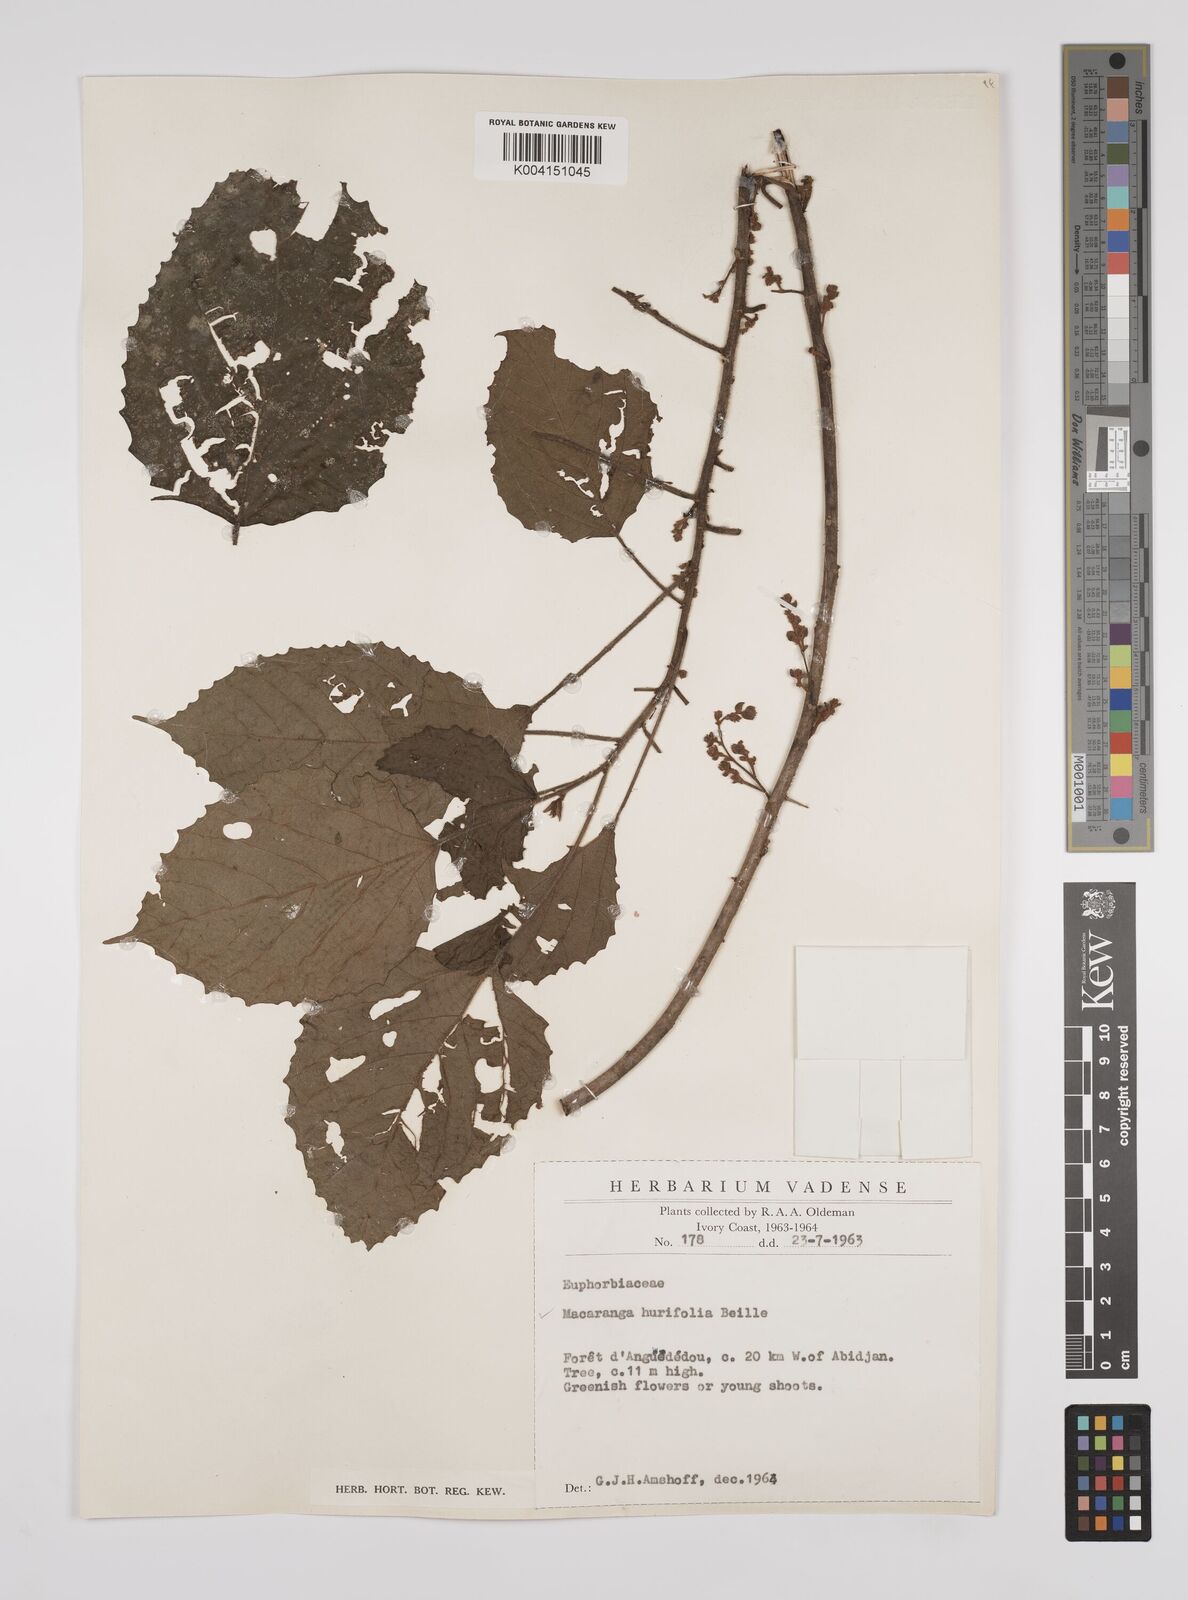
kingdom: Plantae
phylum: Tracheophyta
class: Magnoliopsida
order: Malpighiales
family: Euphorbiaceae
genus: Macaranga
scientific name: Macaranga hurifolia
